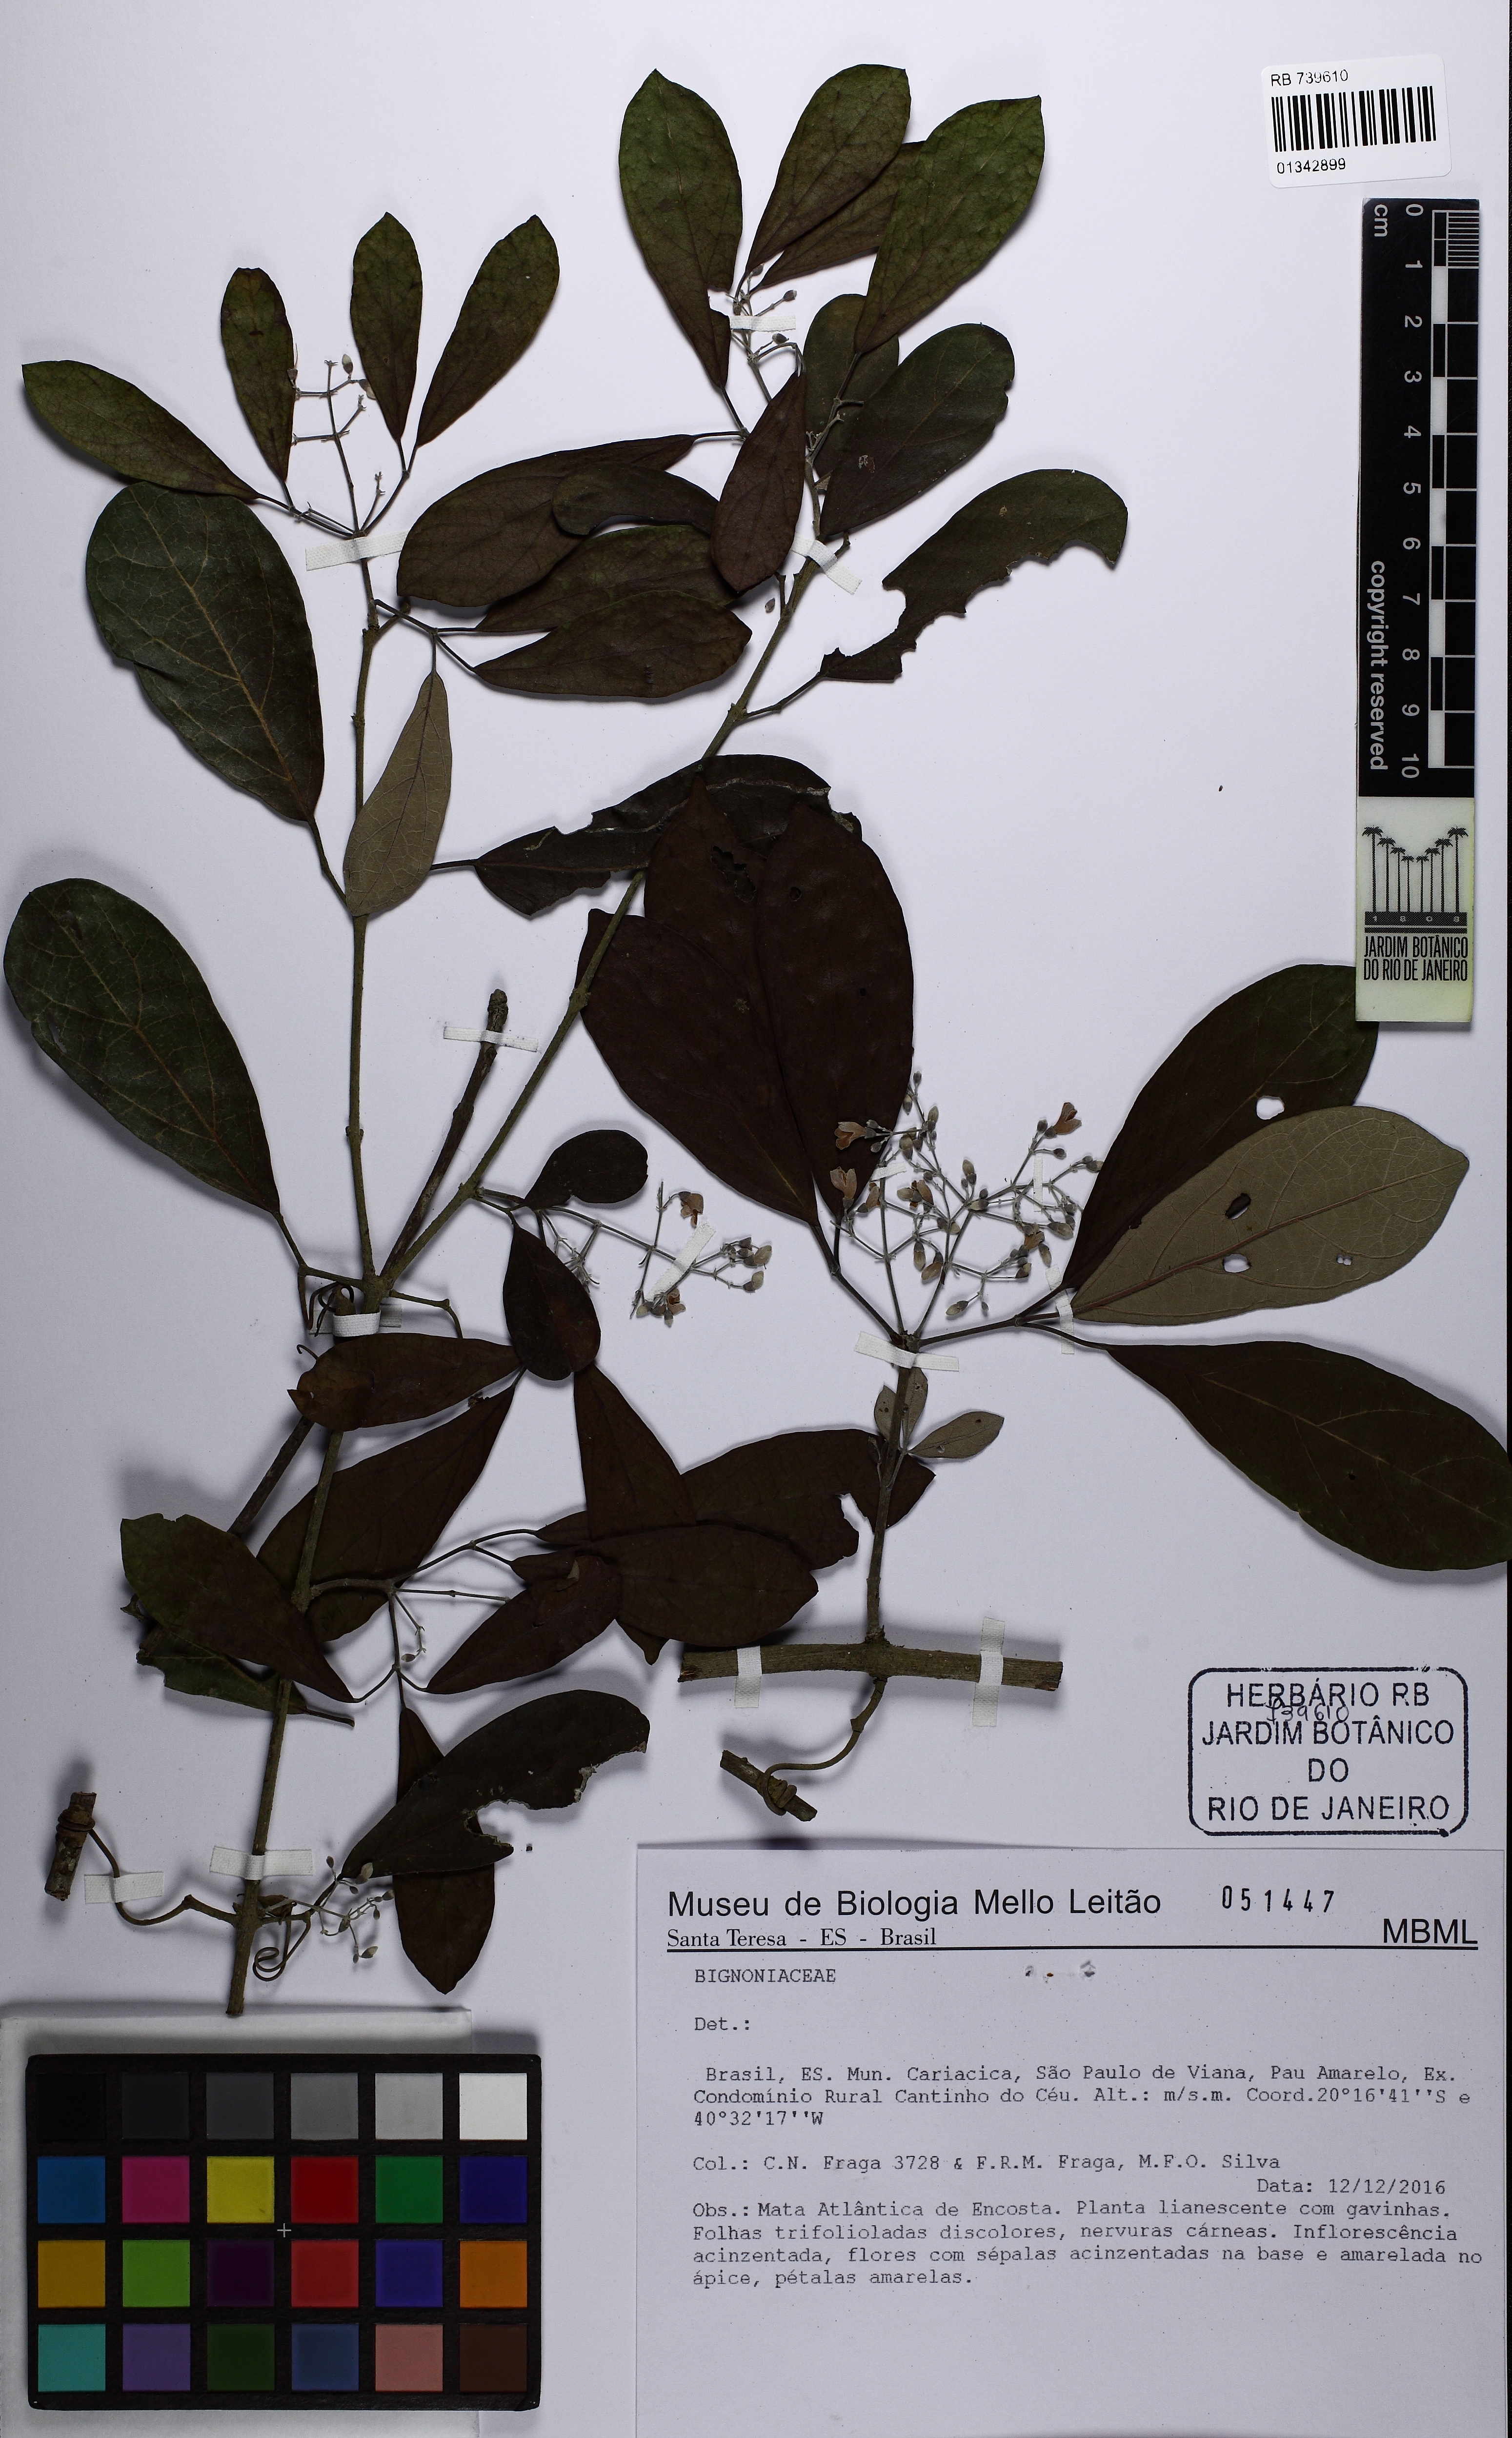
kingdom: Plantae
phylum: Tracheophyta
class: Magnoliopsida
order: Lamiales
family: Bignoniaceae
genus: Tynanthus
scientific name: Tynanthus cognatus
